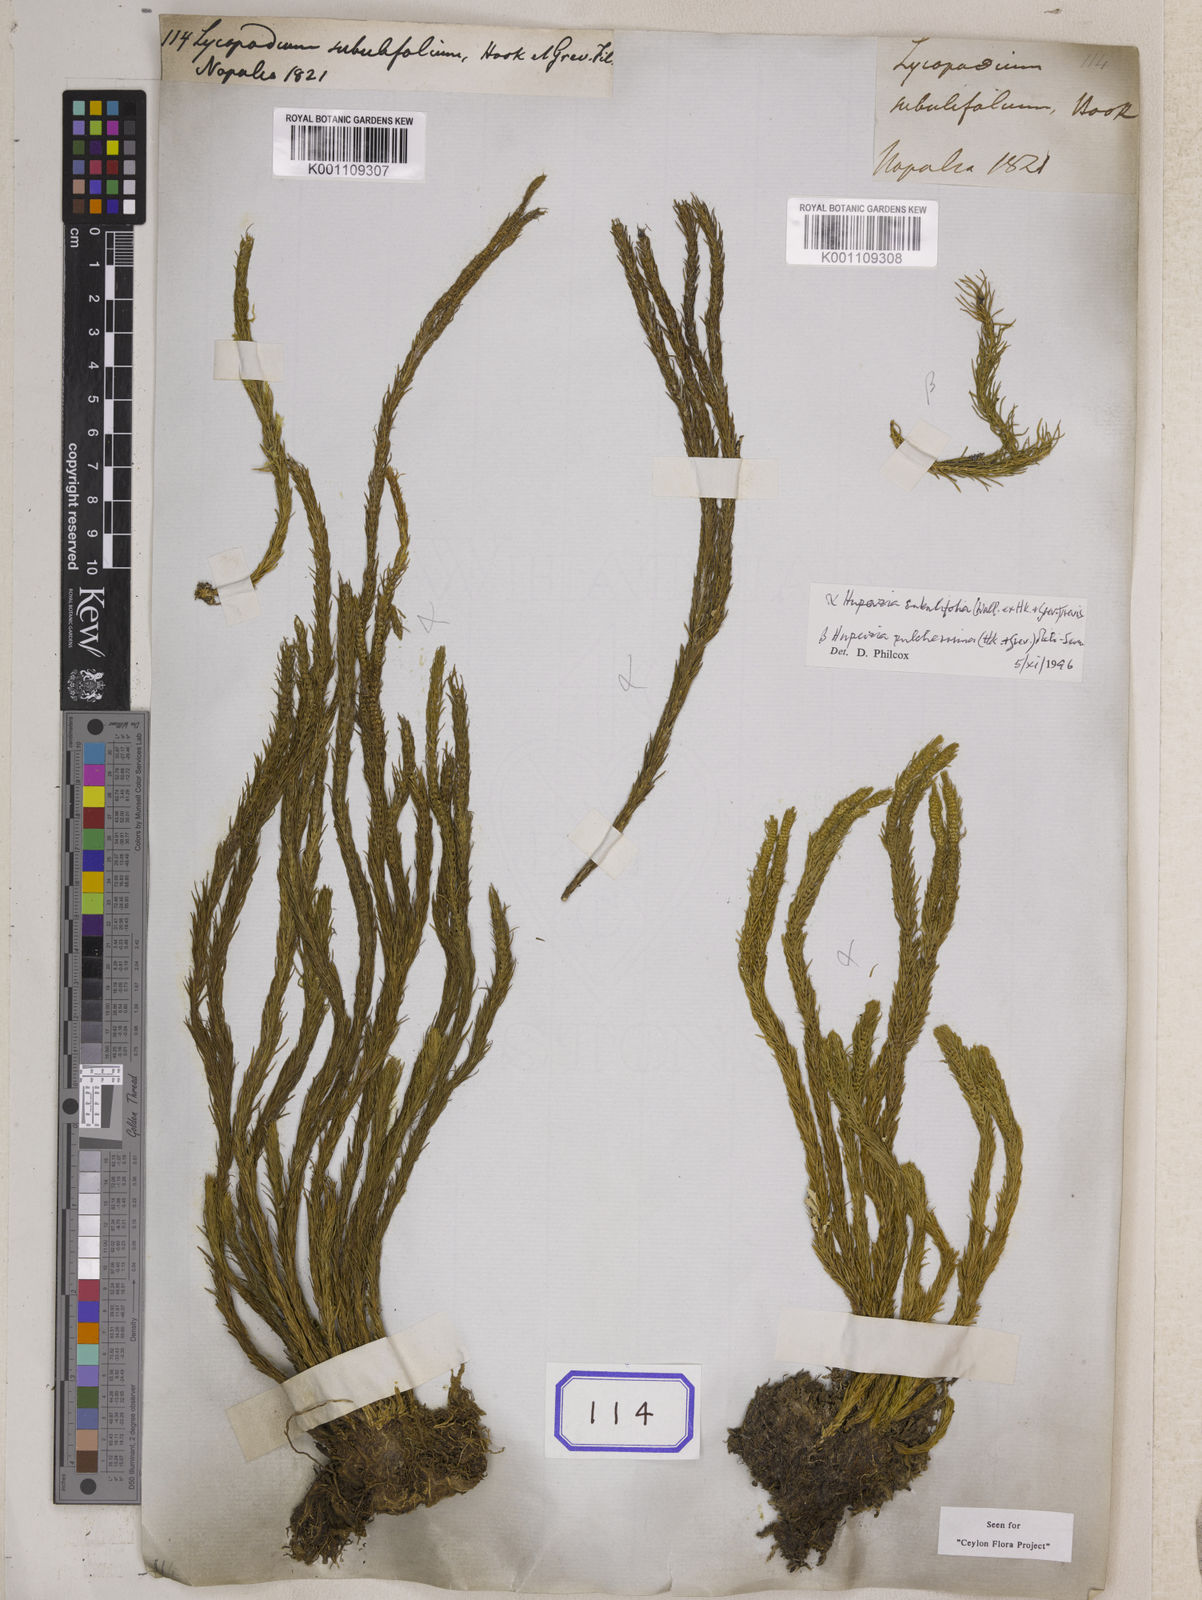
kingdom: Plantae
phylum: Tracheophyta
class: Lycopodiopsida
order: Lycopodiales
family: Lycopodiaceae
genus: Phlegmariurus
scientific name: Phlegmariurus pulcherrimus
